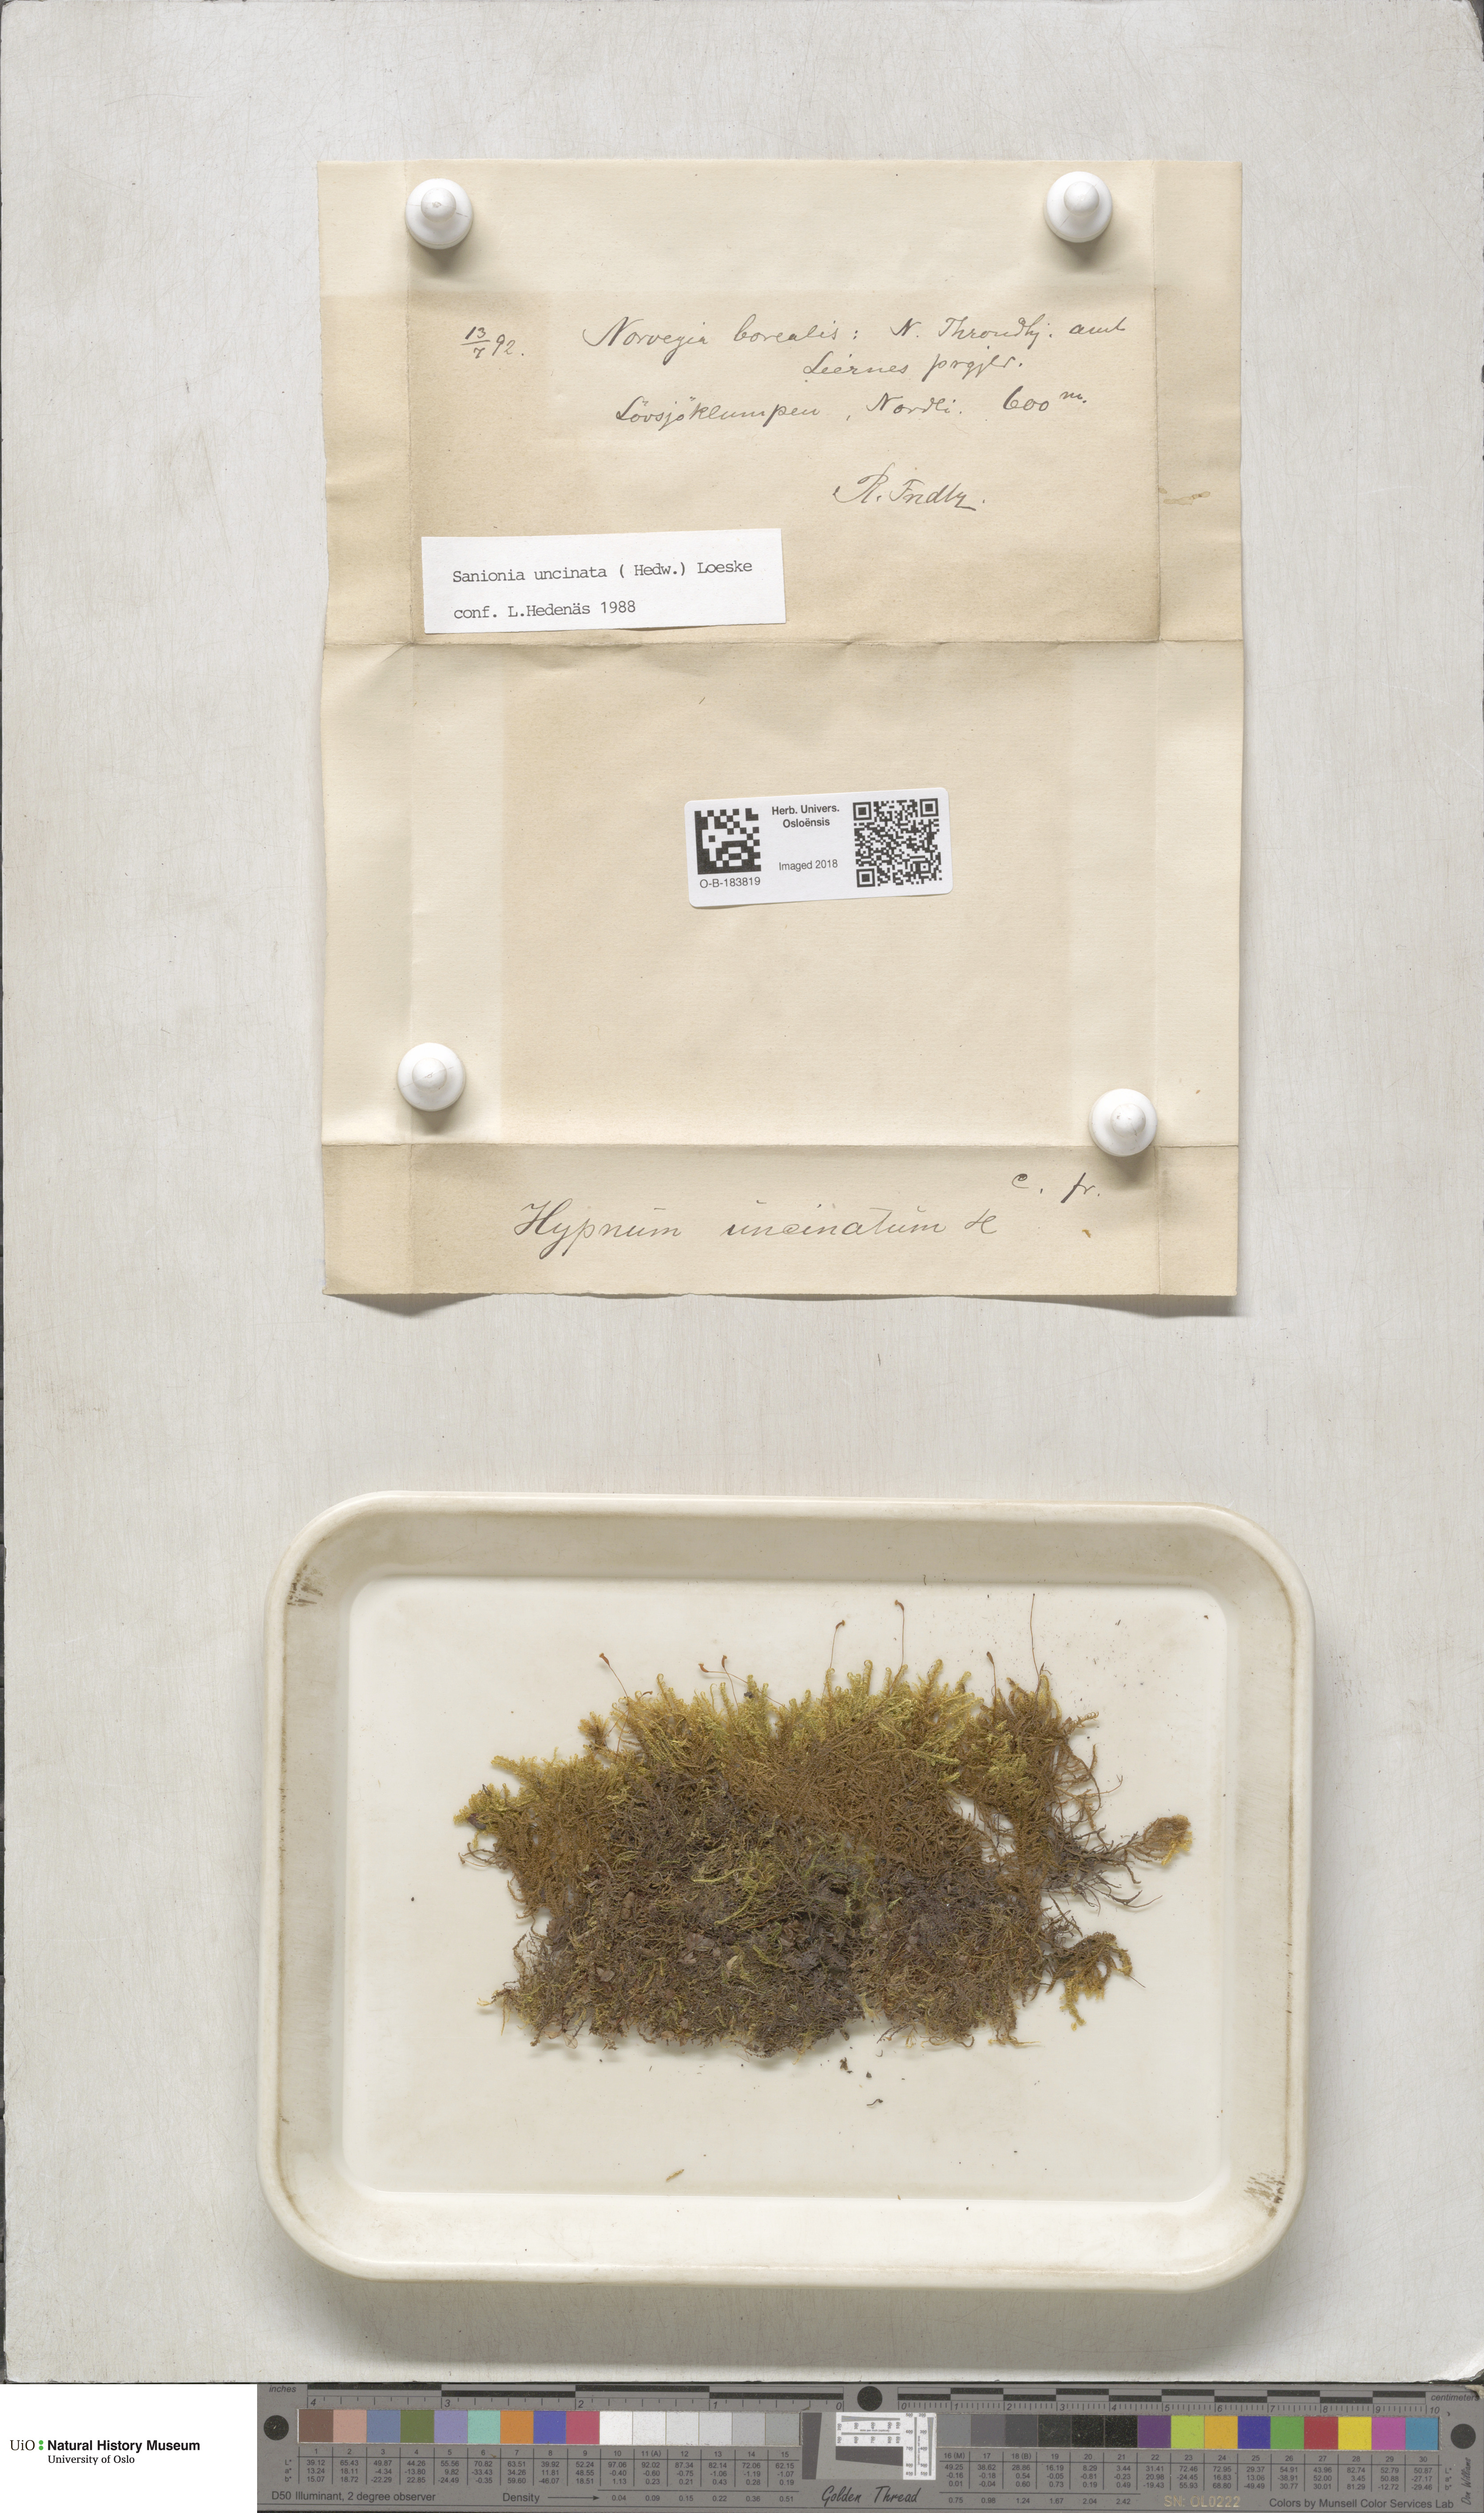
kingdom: Plantae
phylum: Bryophyta
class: Bryopsida
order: Hypnales
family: Scorpidiaceae
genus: Sanionia
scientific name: Sanionia uncinata
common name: Sickle moss
